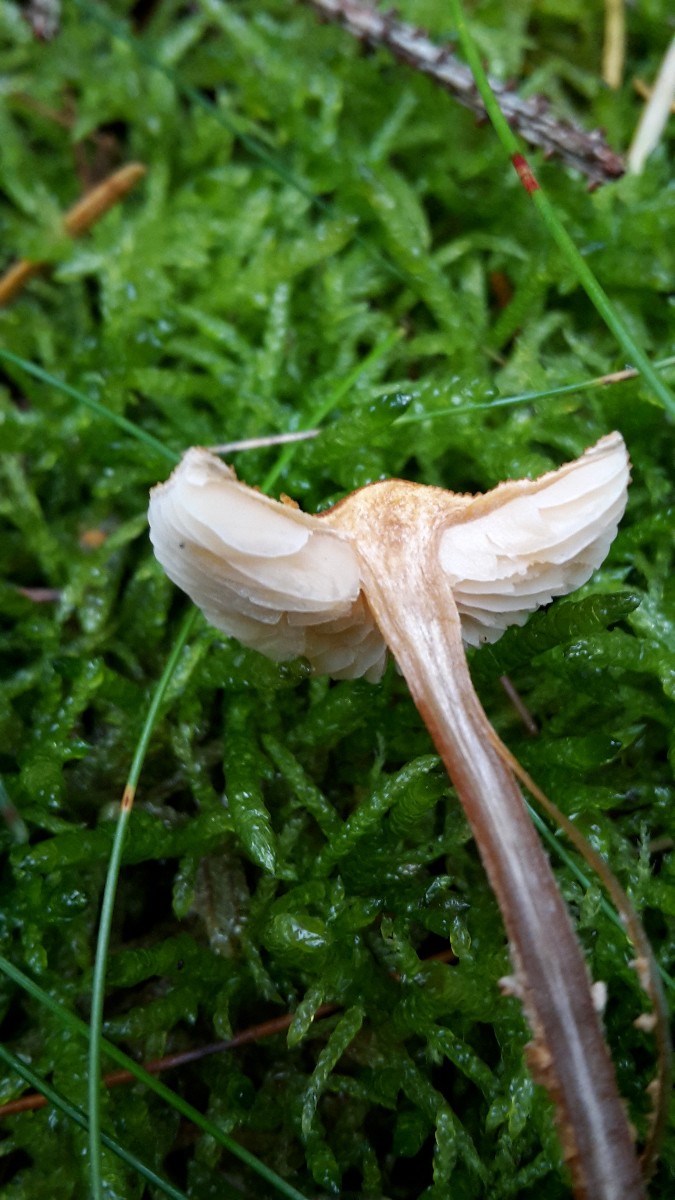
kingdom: Fungi
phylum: Basidiomycota
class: Agaricomycetes
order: Agaricales
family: Tricholomataceae
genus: Cystoderma
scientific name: Cystoderma jasonis
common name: gulkødet grynhat
